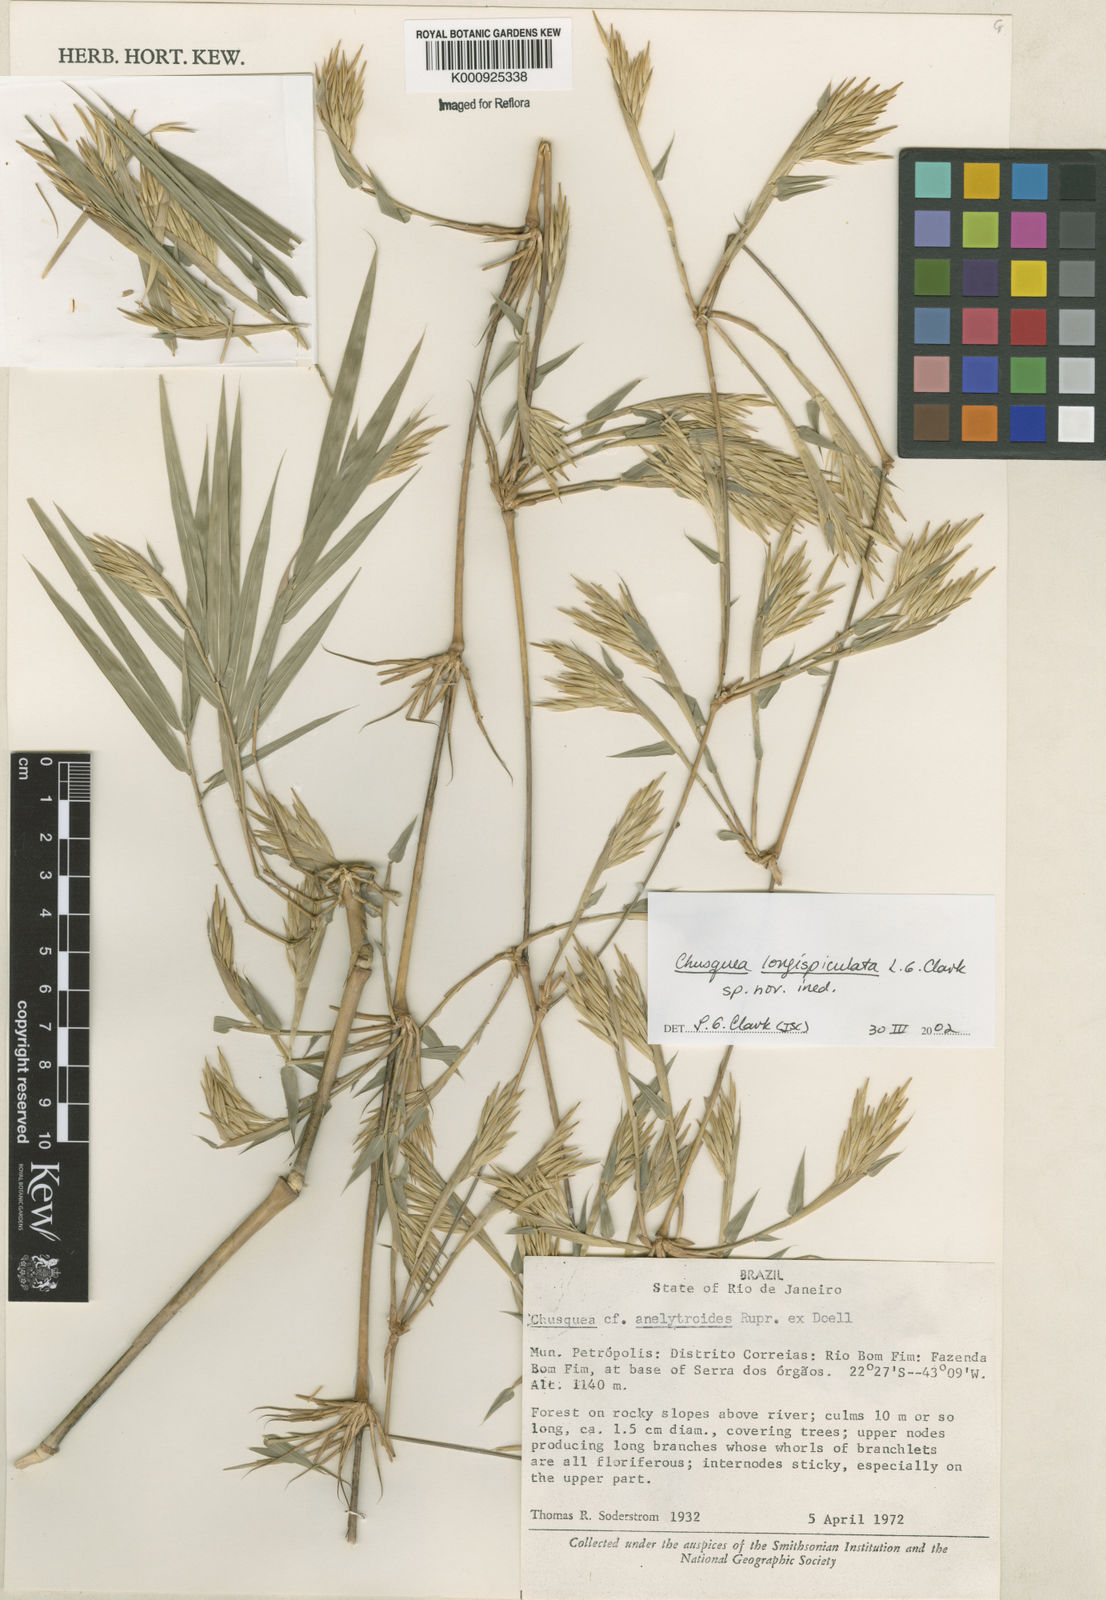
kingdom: Plantae
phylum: Tracheophyta
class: Liliopsida
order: Poales
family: Poaceae
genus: Chusquea
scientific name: Chusquea longispiculata
